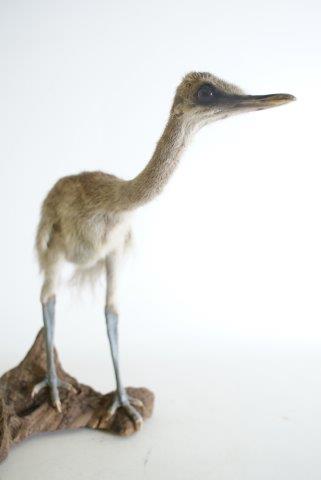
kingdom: Animalia
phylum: Chordata
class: Aves
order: Rheiformes
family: Rheidae
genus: Rhea
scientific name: Rhea americana
